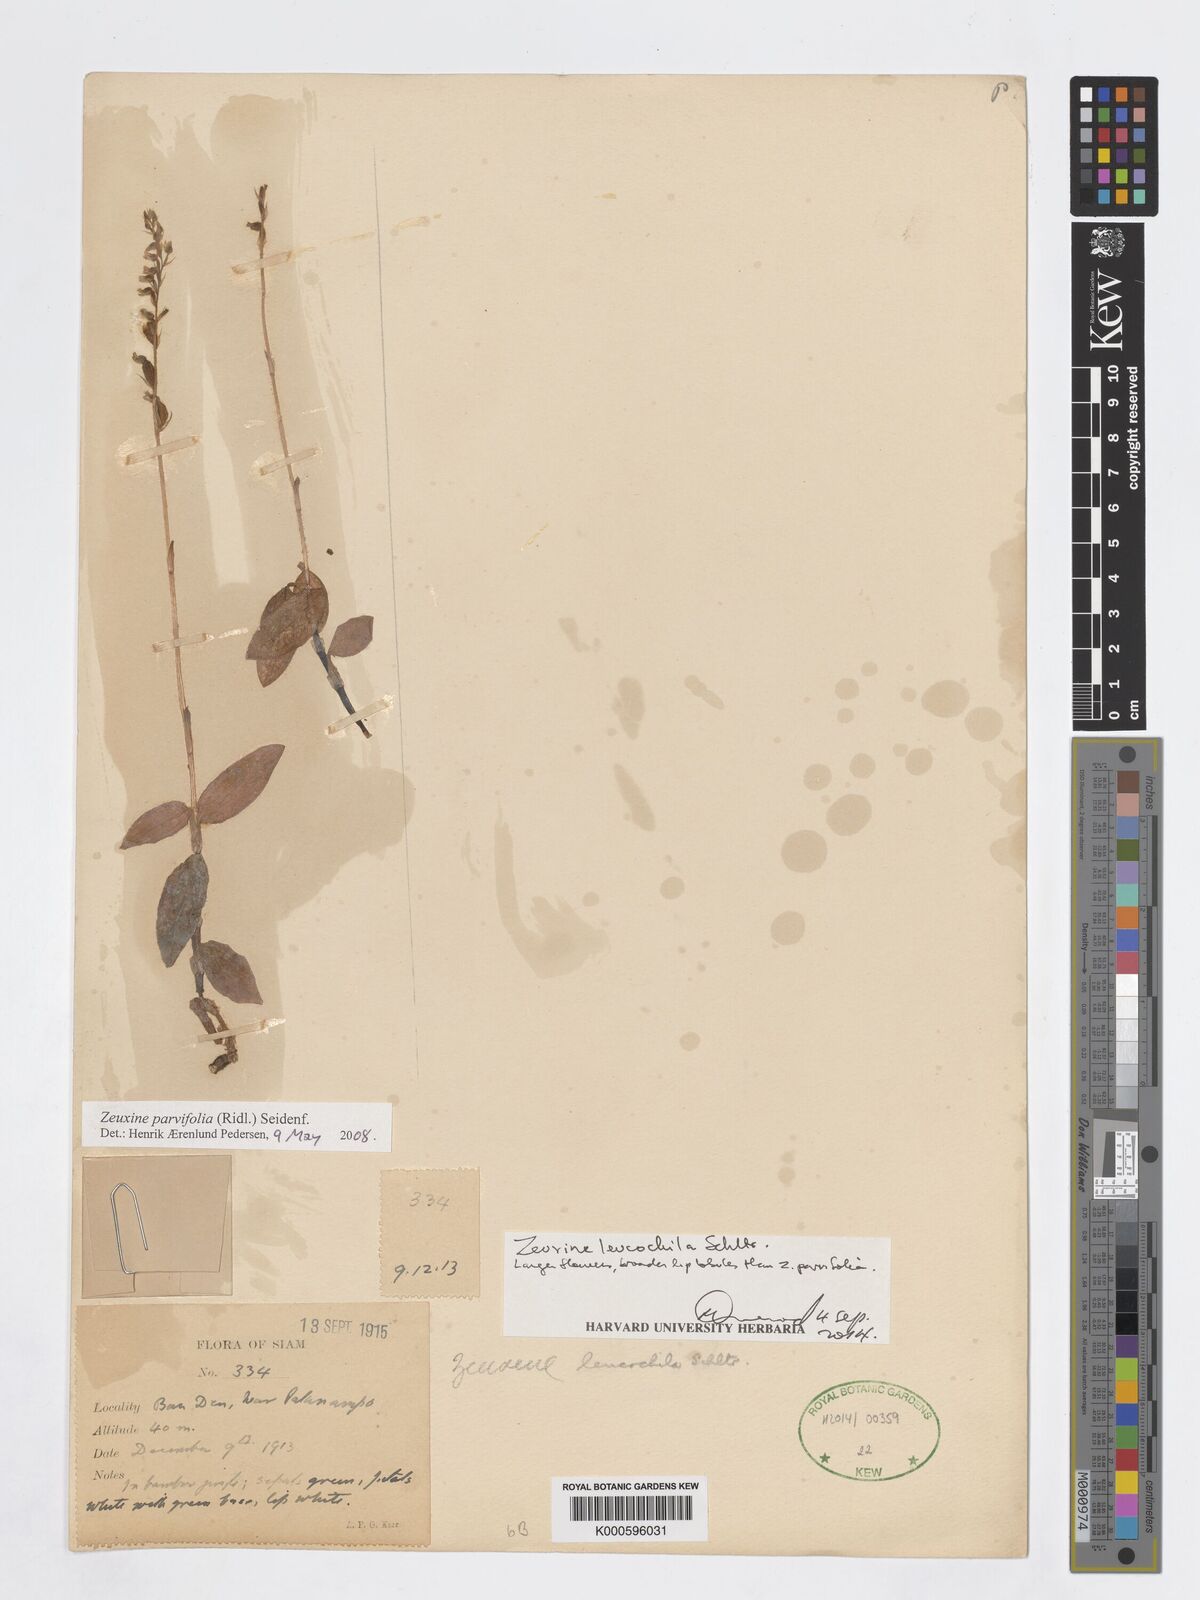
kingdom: Plantae
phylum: Tracheophyta
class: Liliopsida
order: Asparagales
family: Orchidaceae
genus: Zeuxine
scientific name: Zeuxine parvifolia
